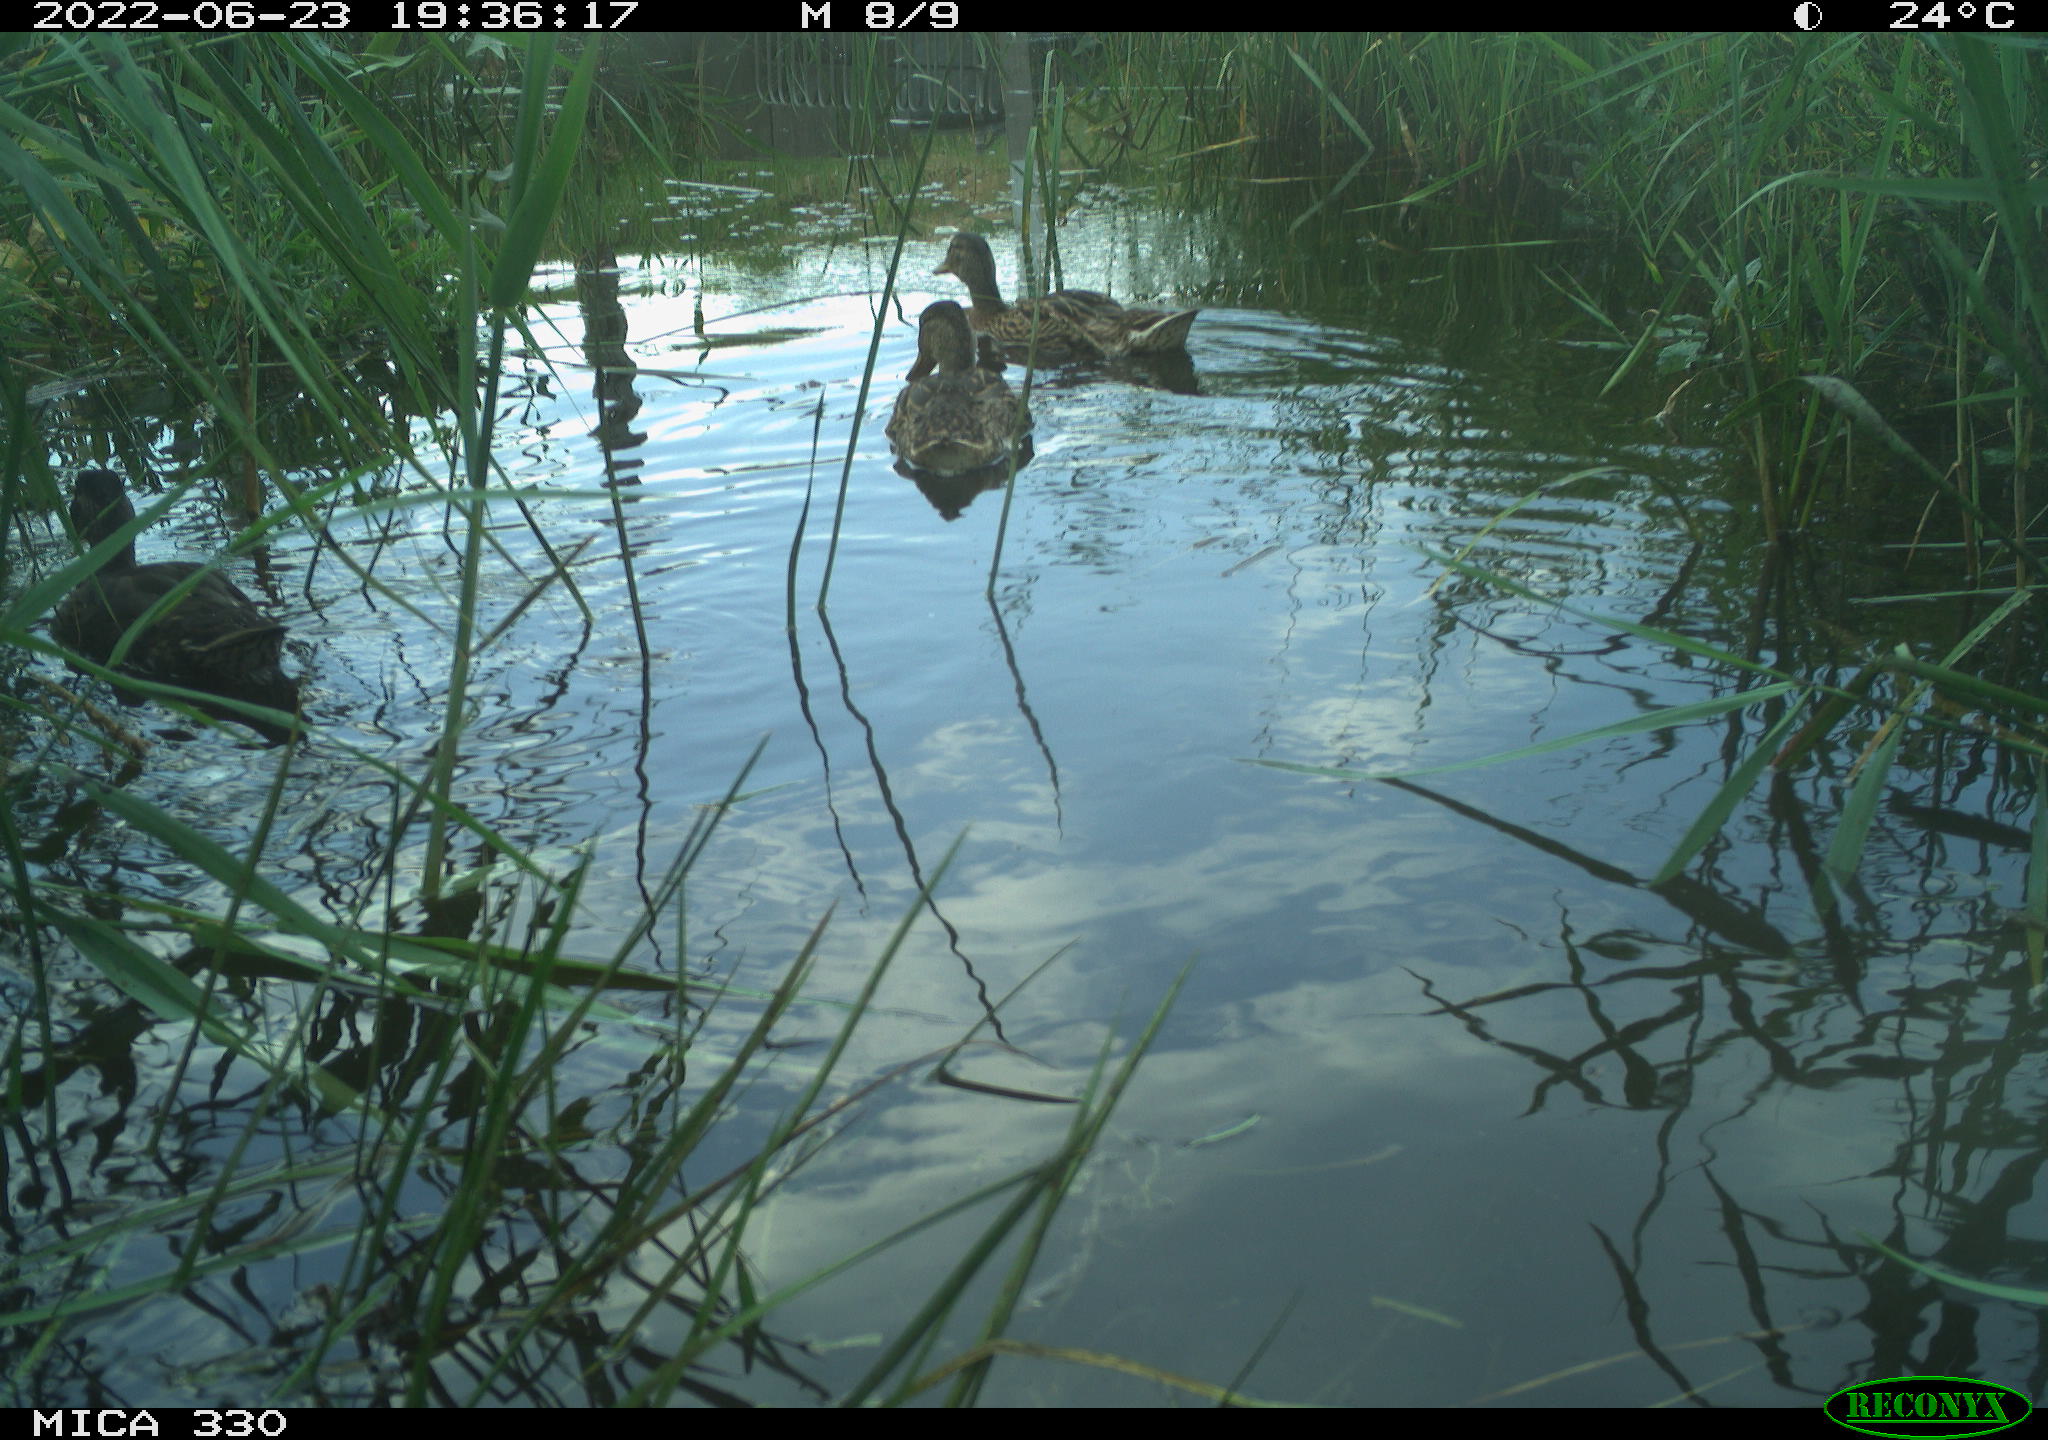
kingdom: Animalia
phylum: Chordata
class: Aves
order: Gruiformes
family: Rallidae
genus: Gallinula
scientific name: Gallinula chloropus
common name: Common moorhen
